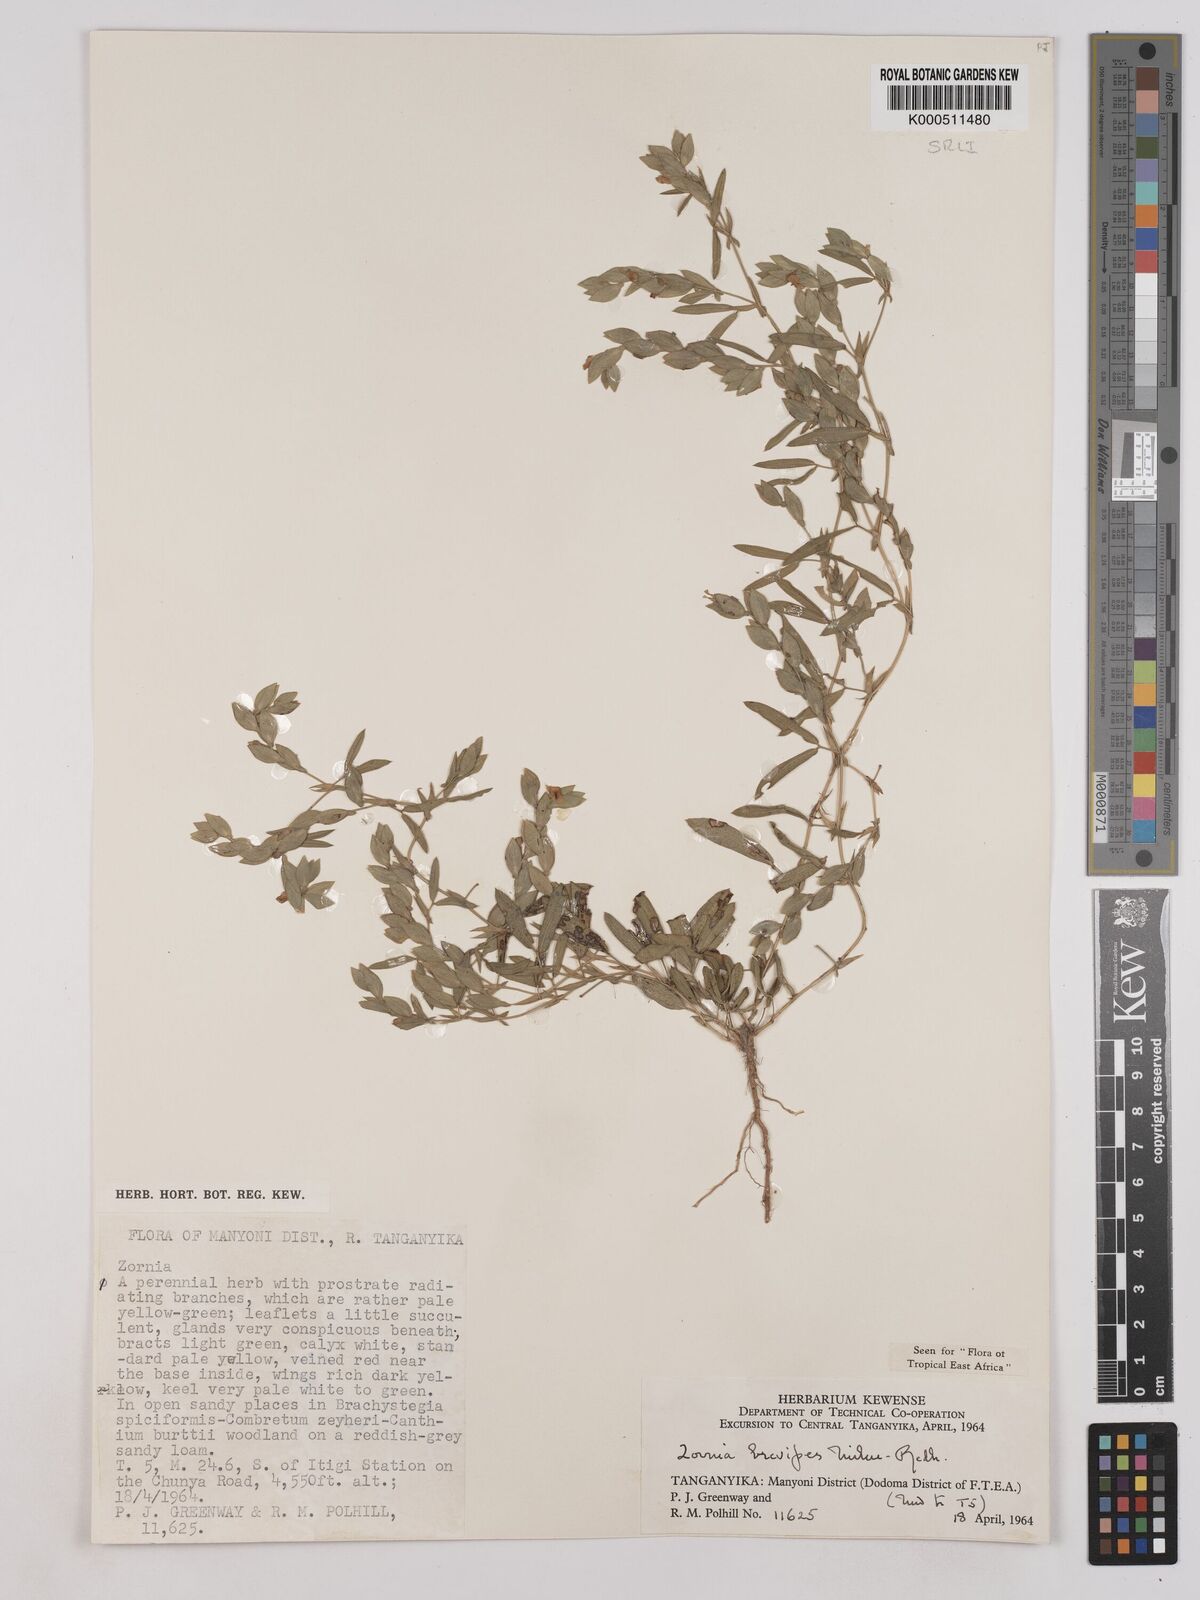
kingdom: Plantae
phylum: Tracheophyta
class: Magnoliopsida
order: Fabales
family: Fabaceae
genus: Zornia
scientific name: Zornia brevipes
